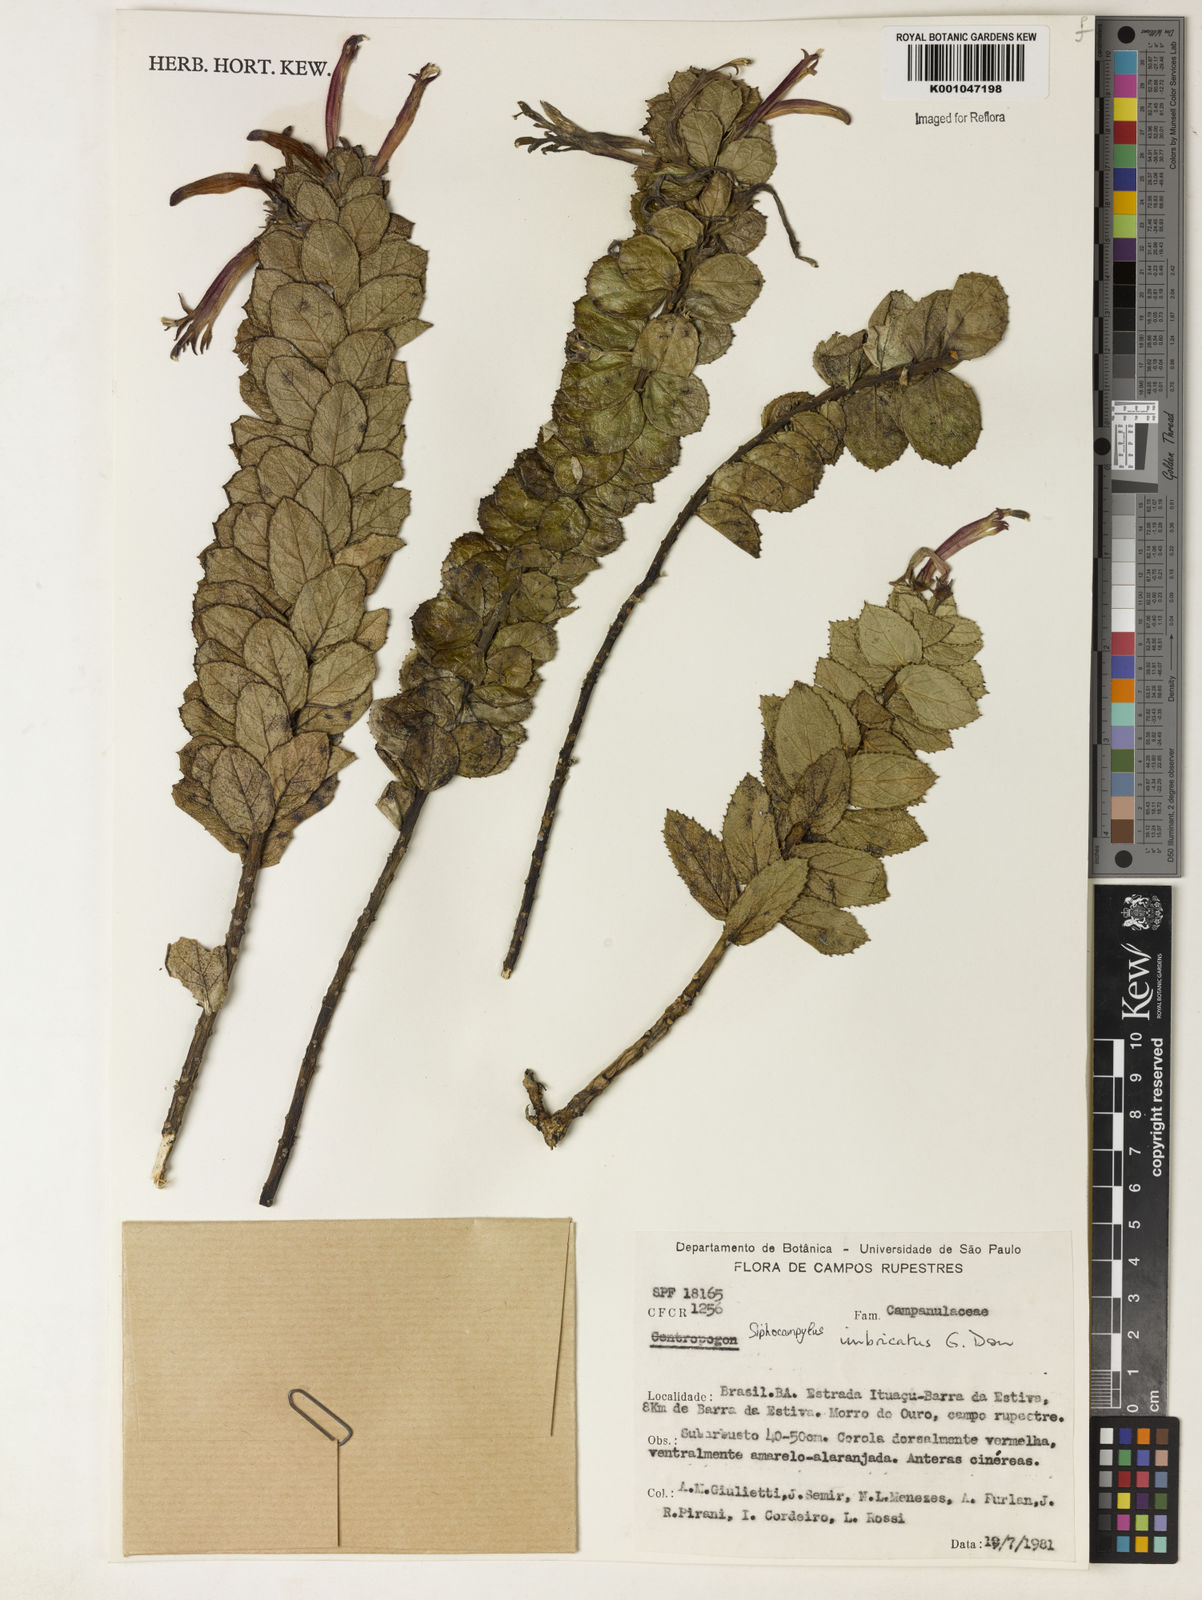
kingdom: Plantae
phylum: Tracheophyta
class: Magnoliopsida
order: Asterales
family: Campanulaceae
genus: Siphocampylus
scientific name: Siphocampylus imbricatus
